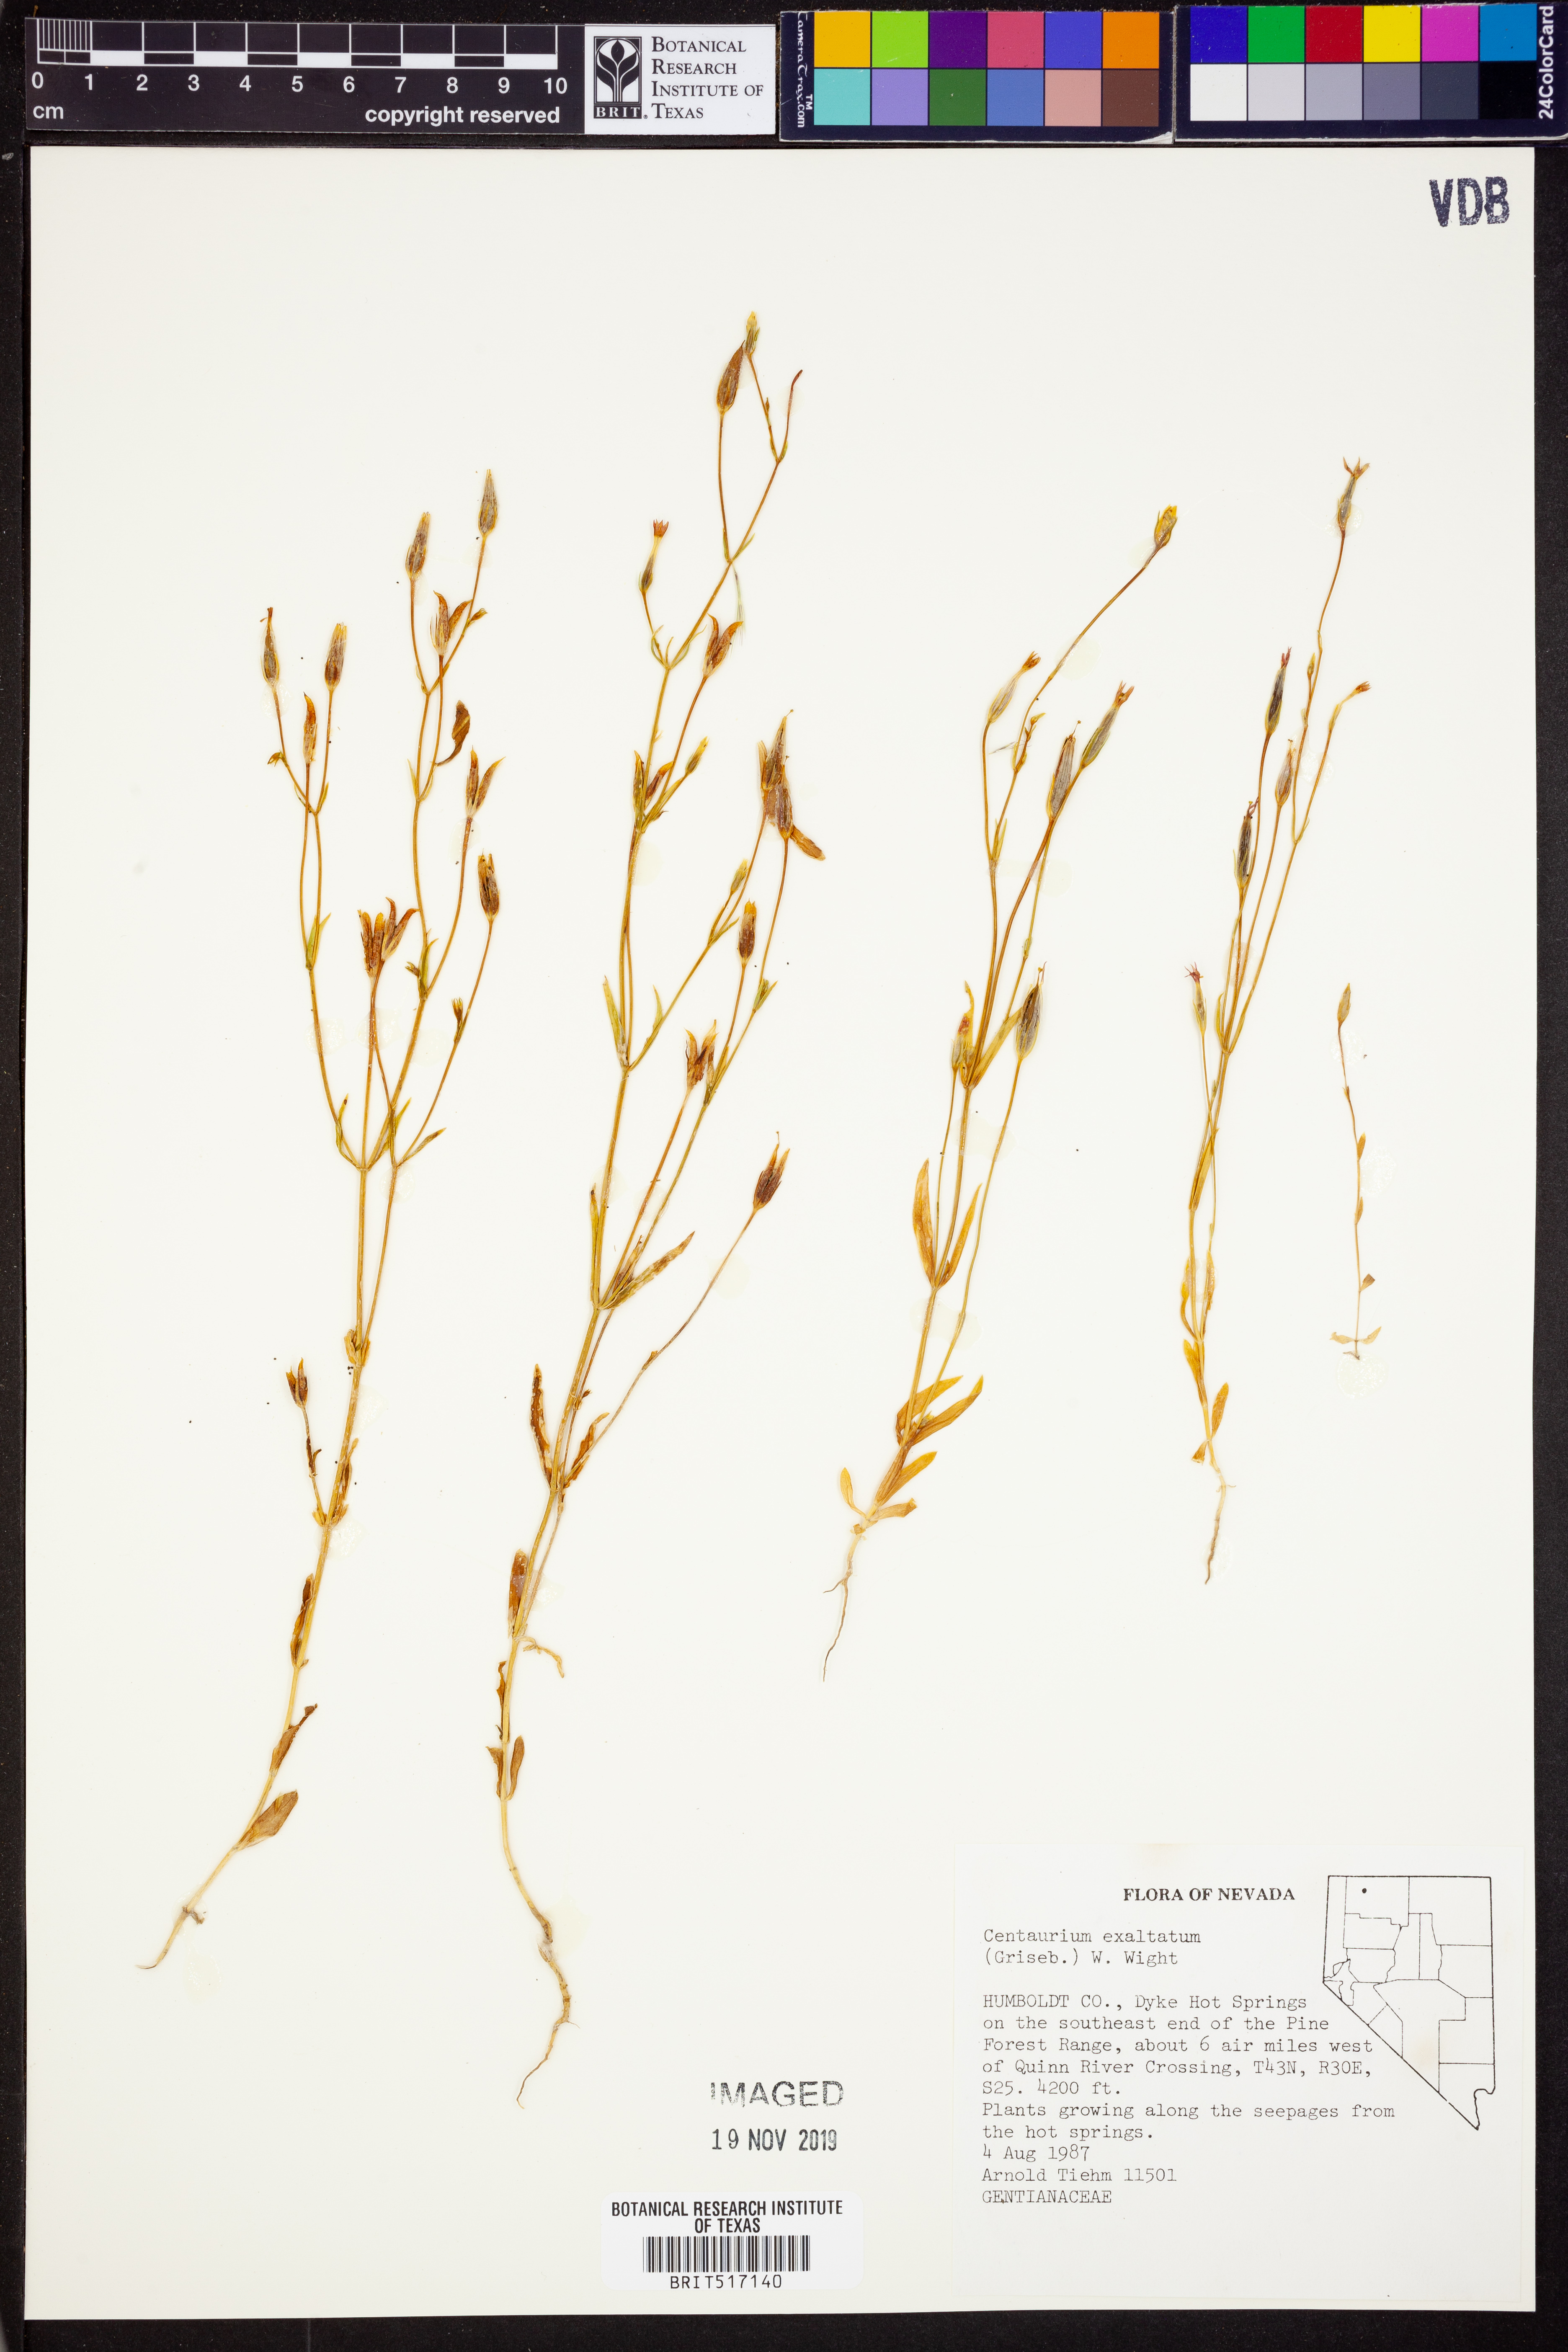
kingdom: Plantae
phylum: Tracheophyta
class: Magnoliopsida
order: Gentianales
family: Gentianaceae
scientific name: Gentianaceae
